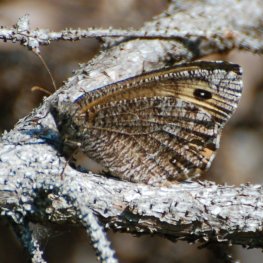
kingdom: Animalia
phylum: Arthropoda
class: Insecta
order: Lepidoptera
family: Nymphalidae
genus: Oeneis
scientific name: Oeneis jutta
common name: Jutta Arctic
